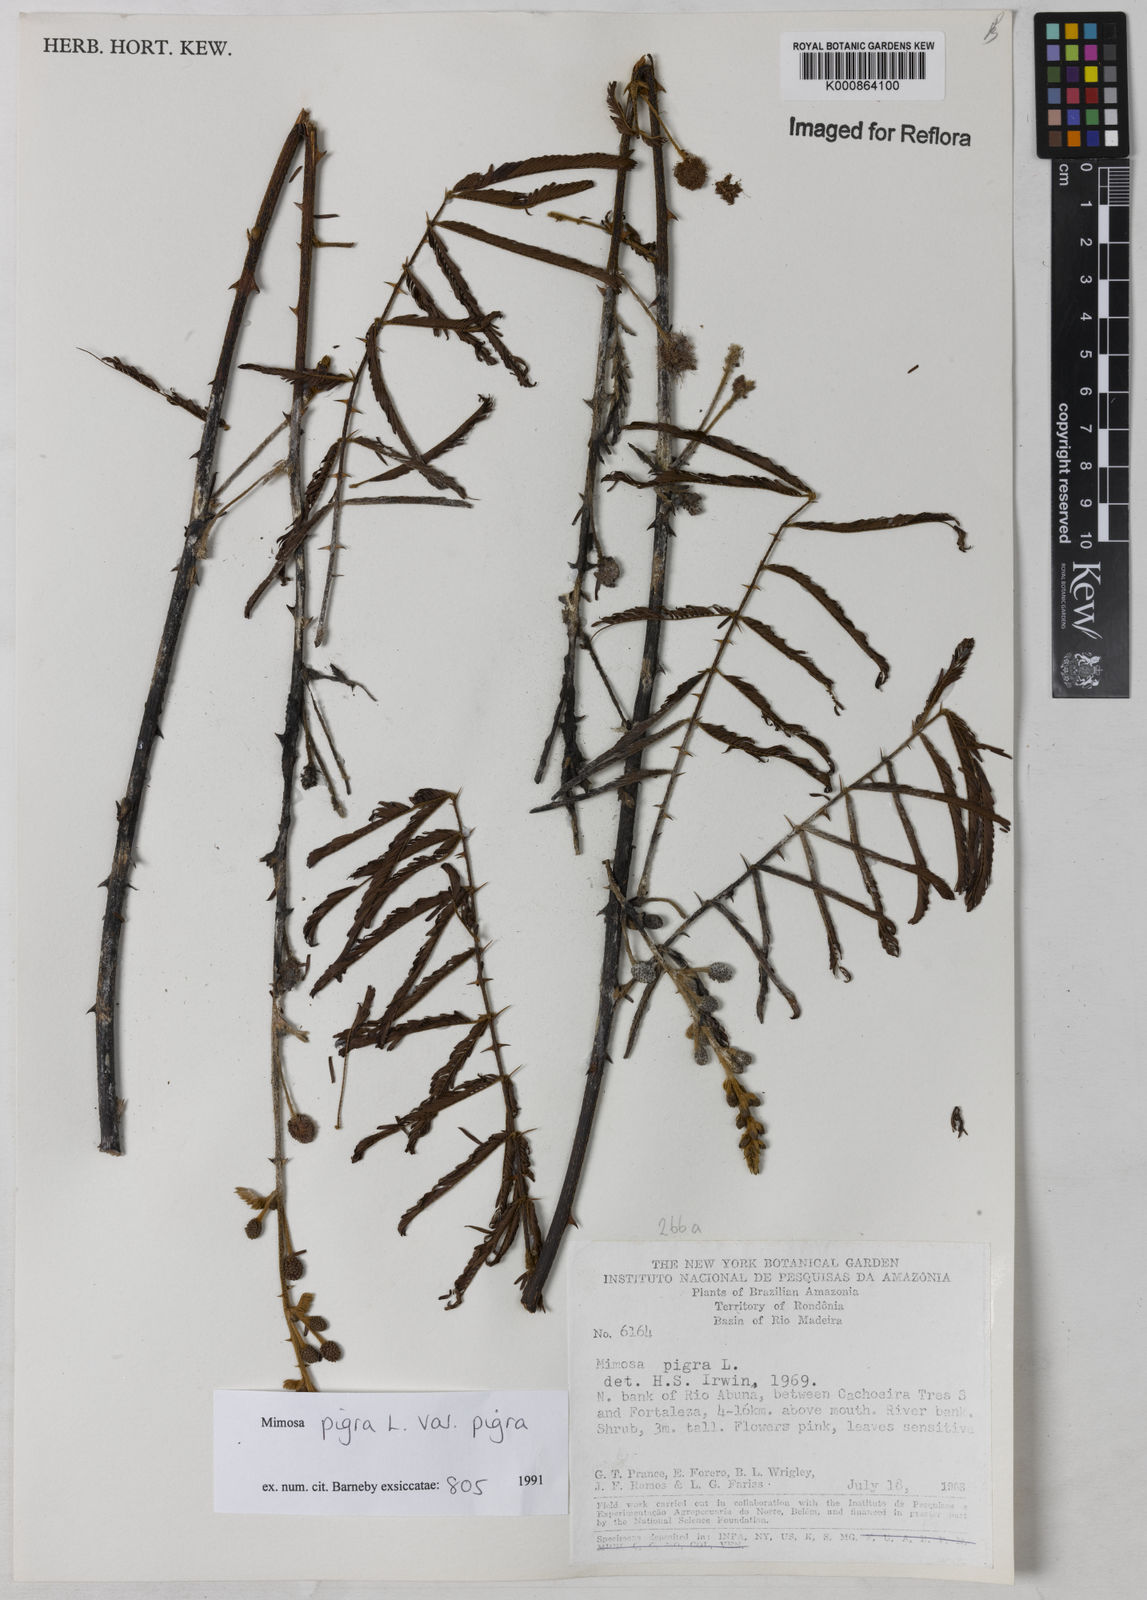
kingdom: Plantae
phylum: Tracheophyta
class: Magnoliopsida
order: Fabales
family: Fabaceae
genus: Mimosa
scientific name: Mimosa pigra
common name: Black mimosa
